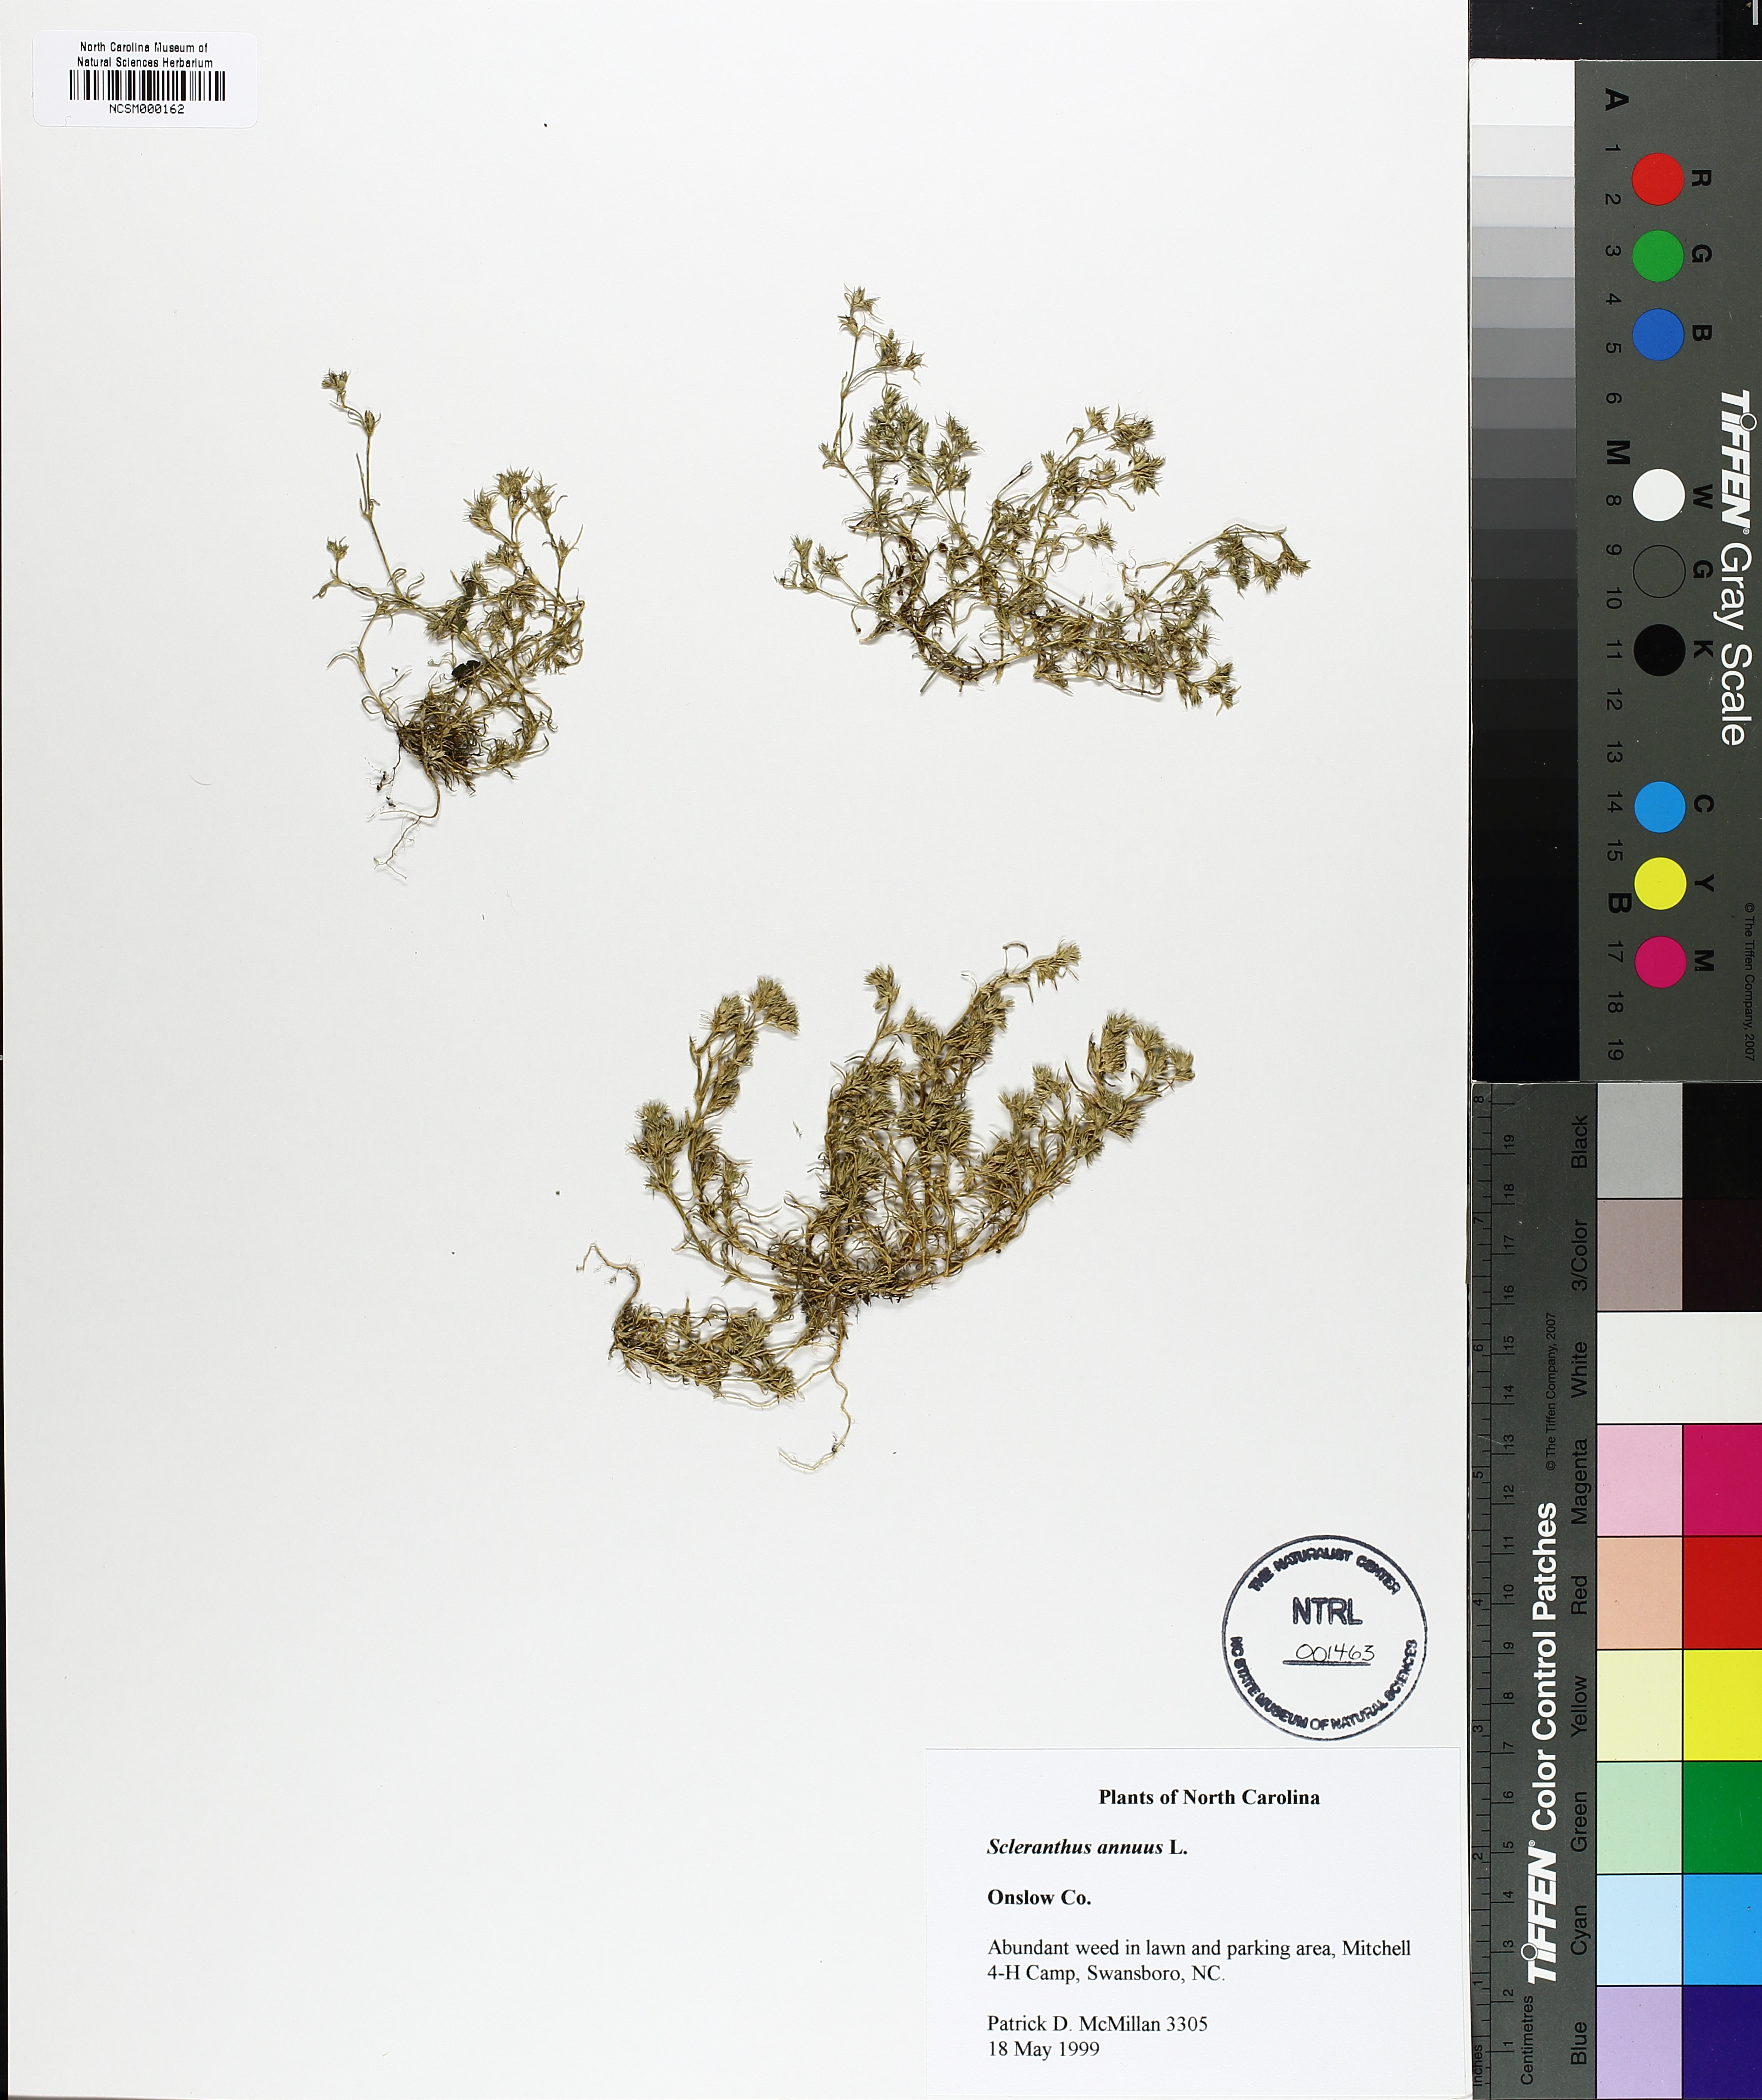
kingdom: Plantae
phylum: Tracheophyta
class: Magnoliopsida
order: Caryophyllales
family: Caryophyllaceae
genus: Scleranthus
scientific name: Scleranthus annuus
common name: Annual knawel
